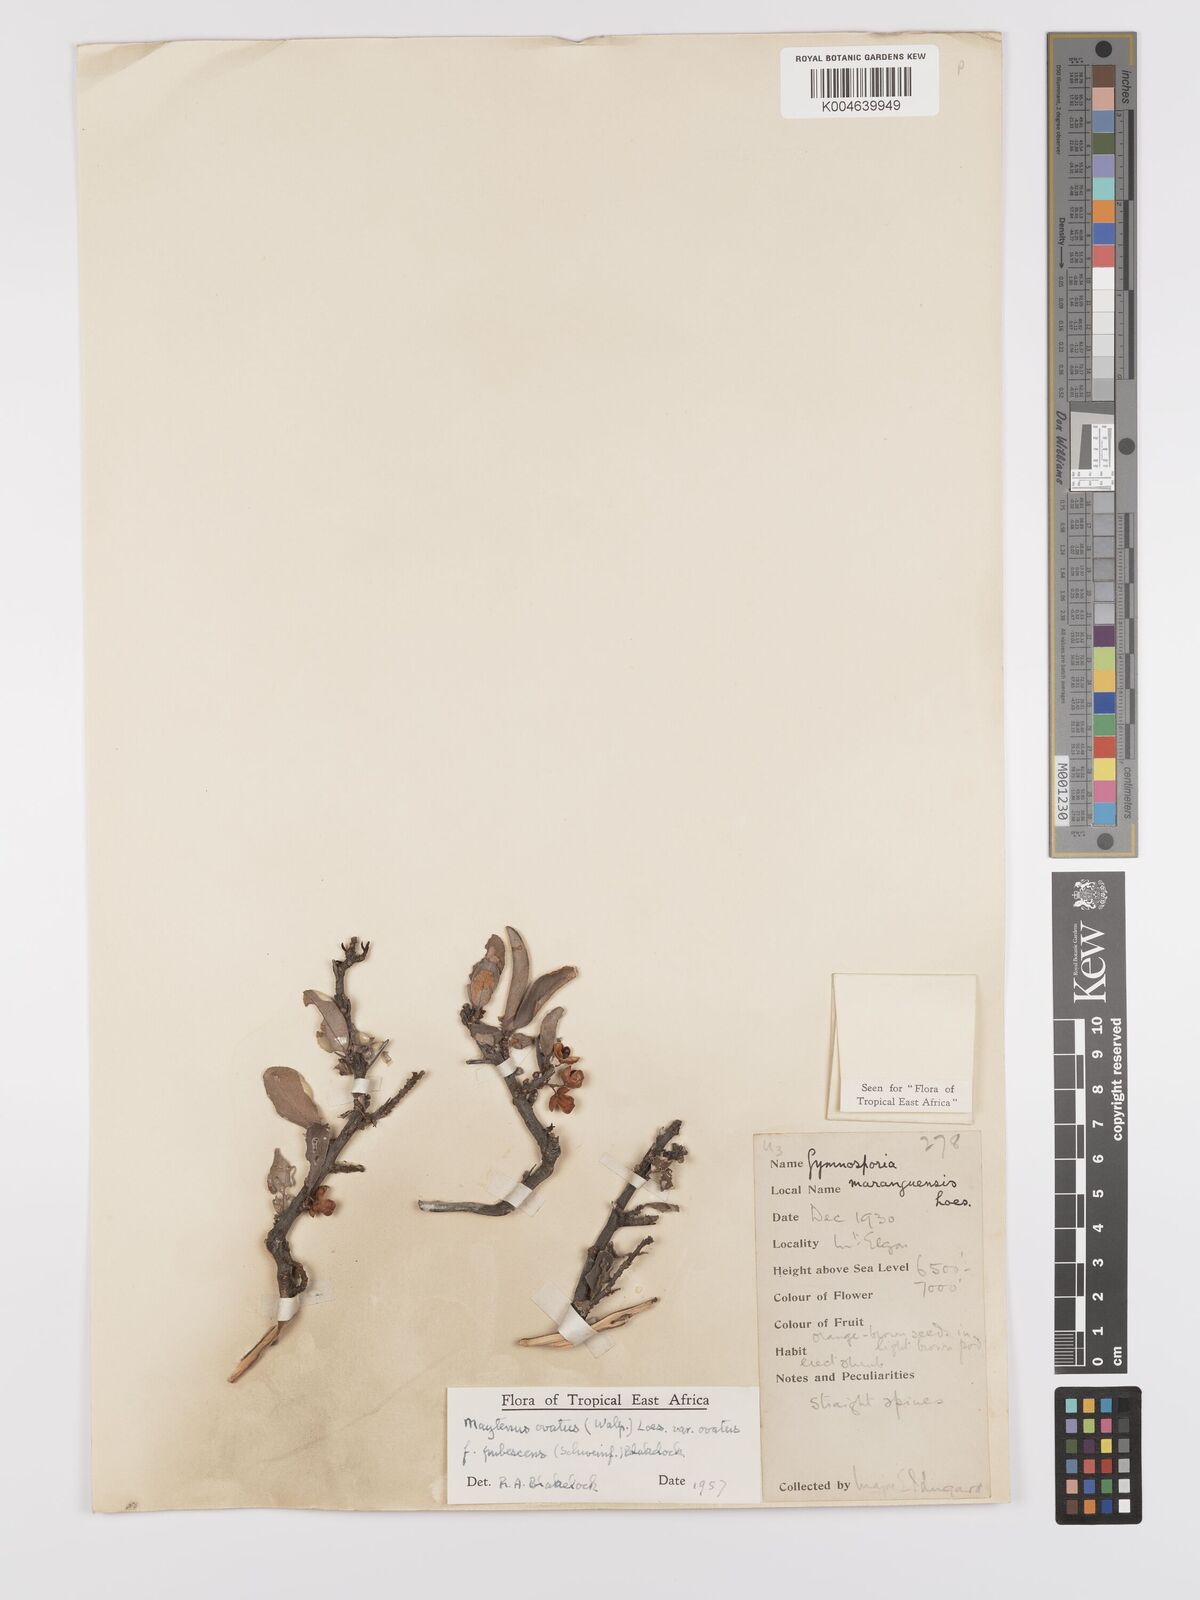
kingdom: Plantae
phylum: Tracheophyta
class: Magnoliopsida
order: Celastrales
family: Celastraceae
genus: Gymnosporia
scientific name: Gymnosporia
